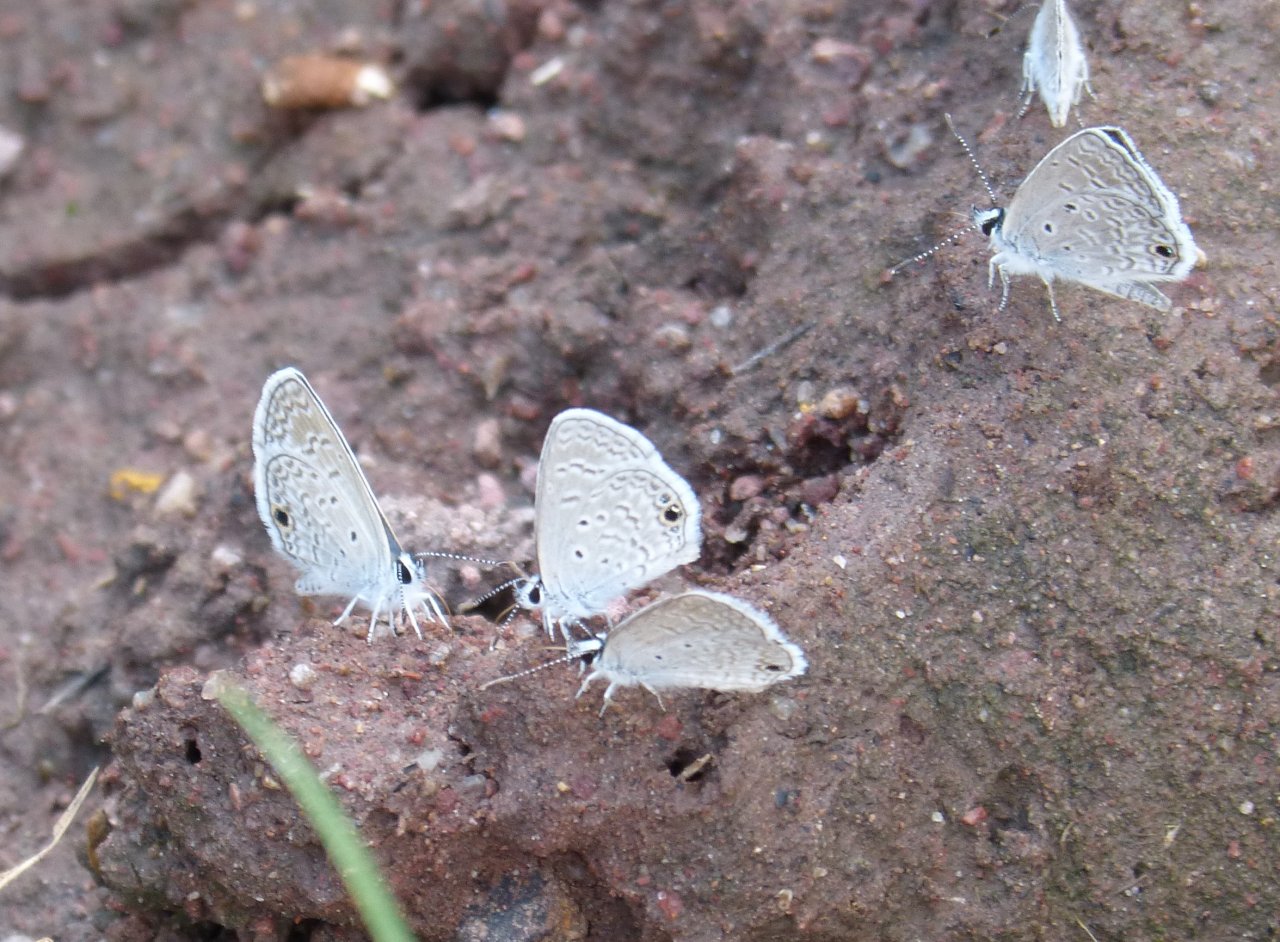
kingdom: Animalia
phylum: Arthropoda
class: Insecta
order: Lepidoptera
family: Lycaenidae
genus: Hemiargus
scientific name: Hemiargus ceraunus
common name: Ceraunus Blue
